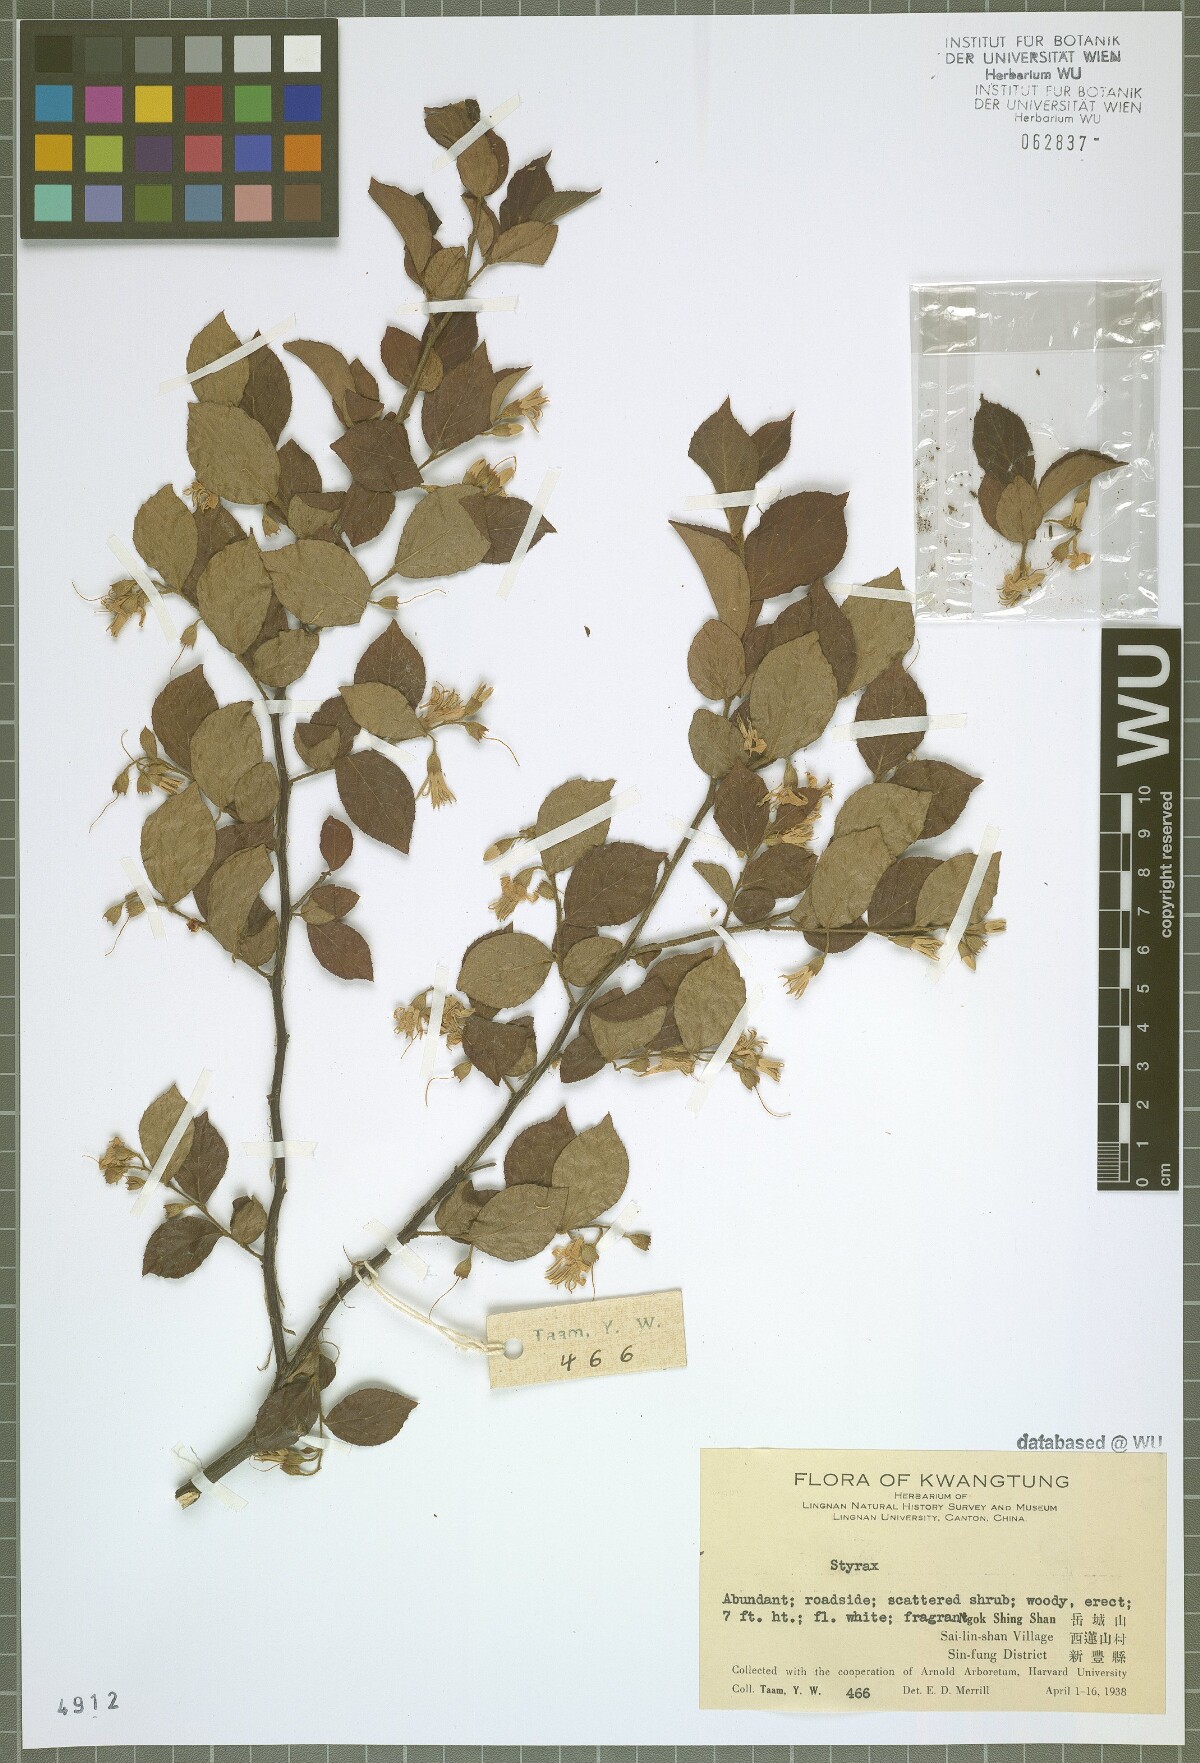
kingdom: Plantae
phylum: Tracheophyta
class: Magnoliopsida
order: Ericales
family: Styracaceae
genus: Styrax
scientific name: Styrax
